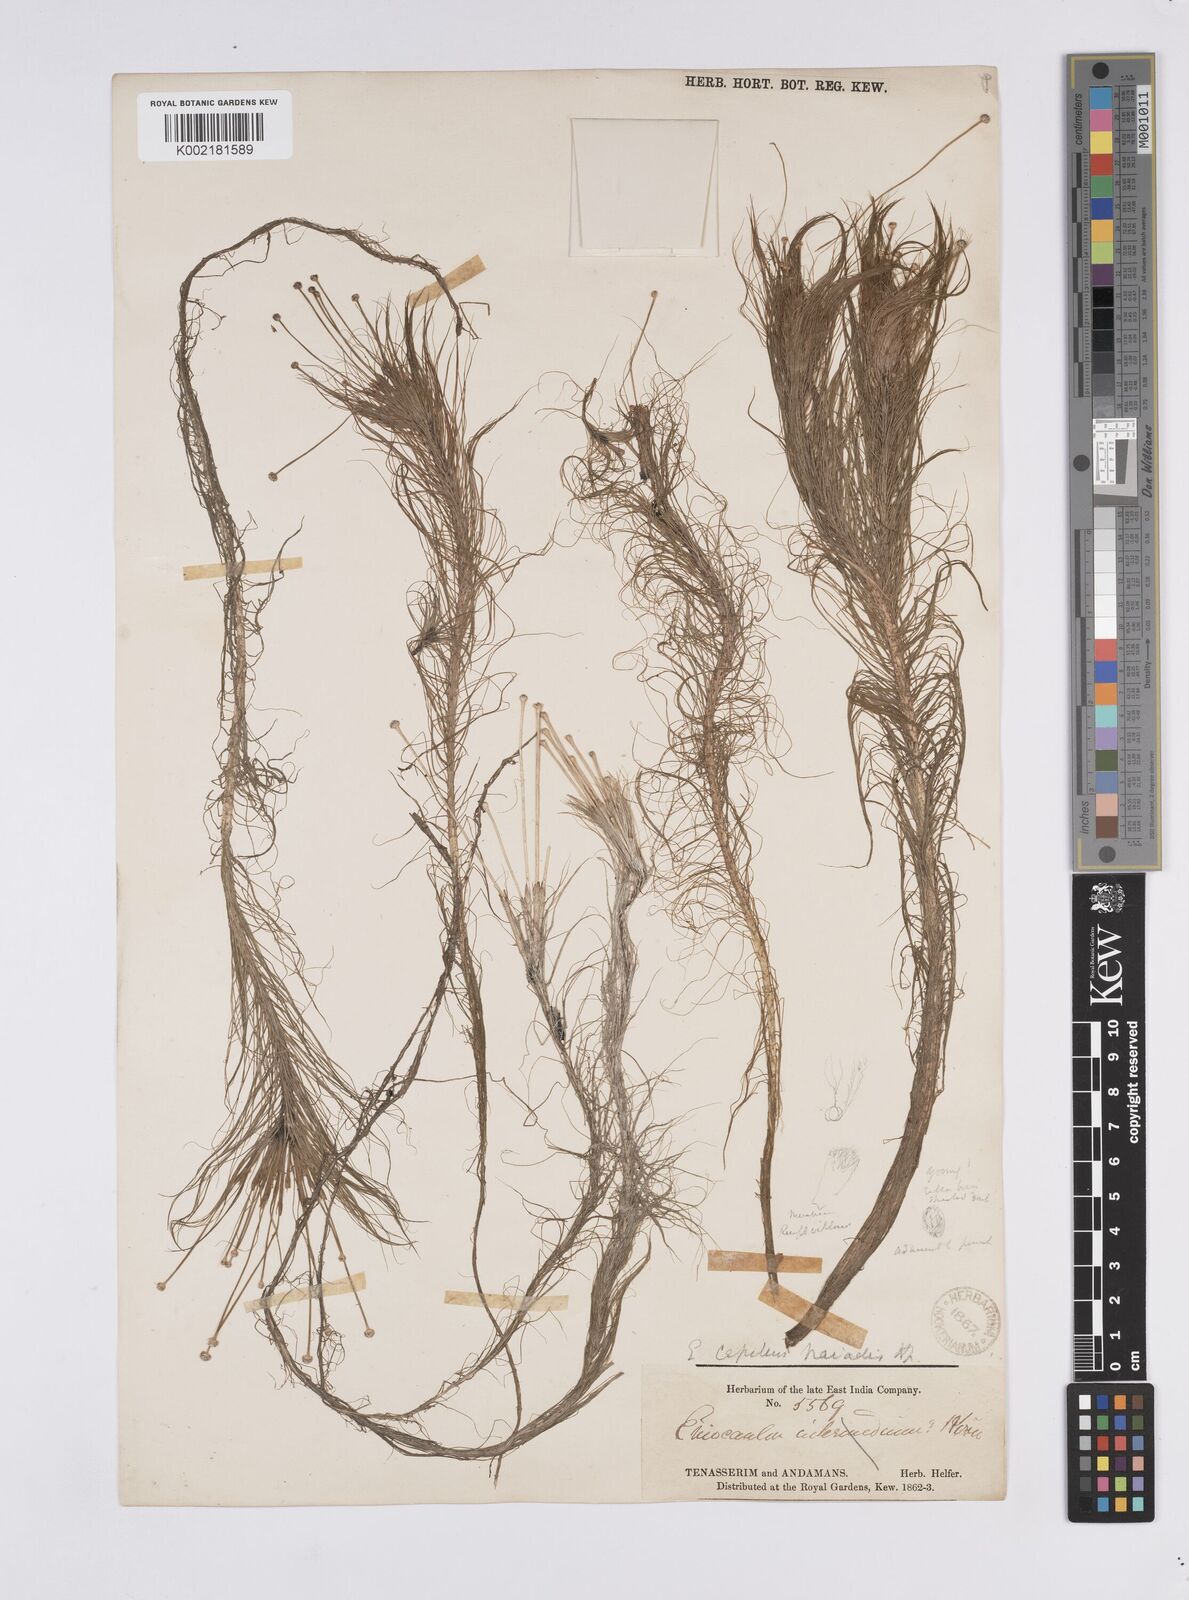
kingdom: Plantae
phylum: Tracheophyta
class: Liliopsida
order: Poales
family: Eriocaulaceae
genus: Eriocaulon
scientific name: Eriocaulon setaceum
